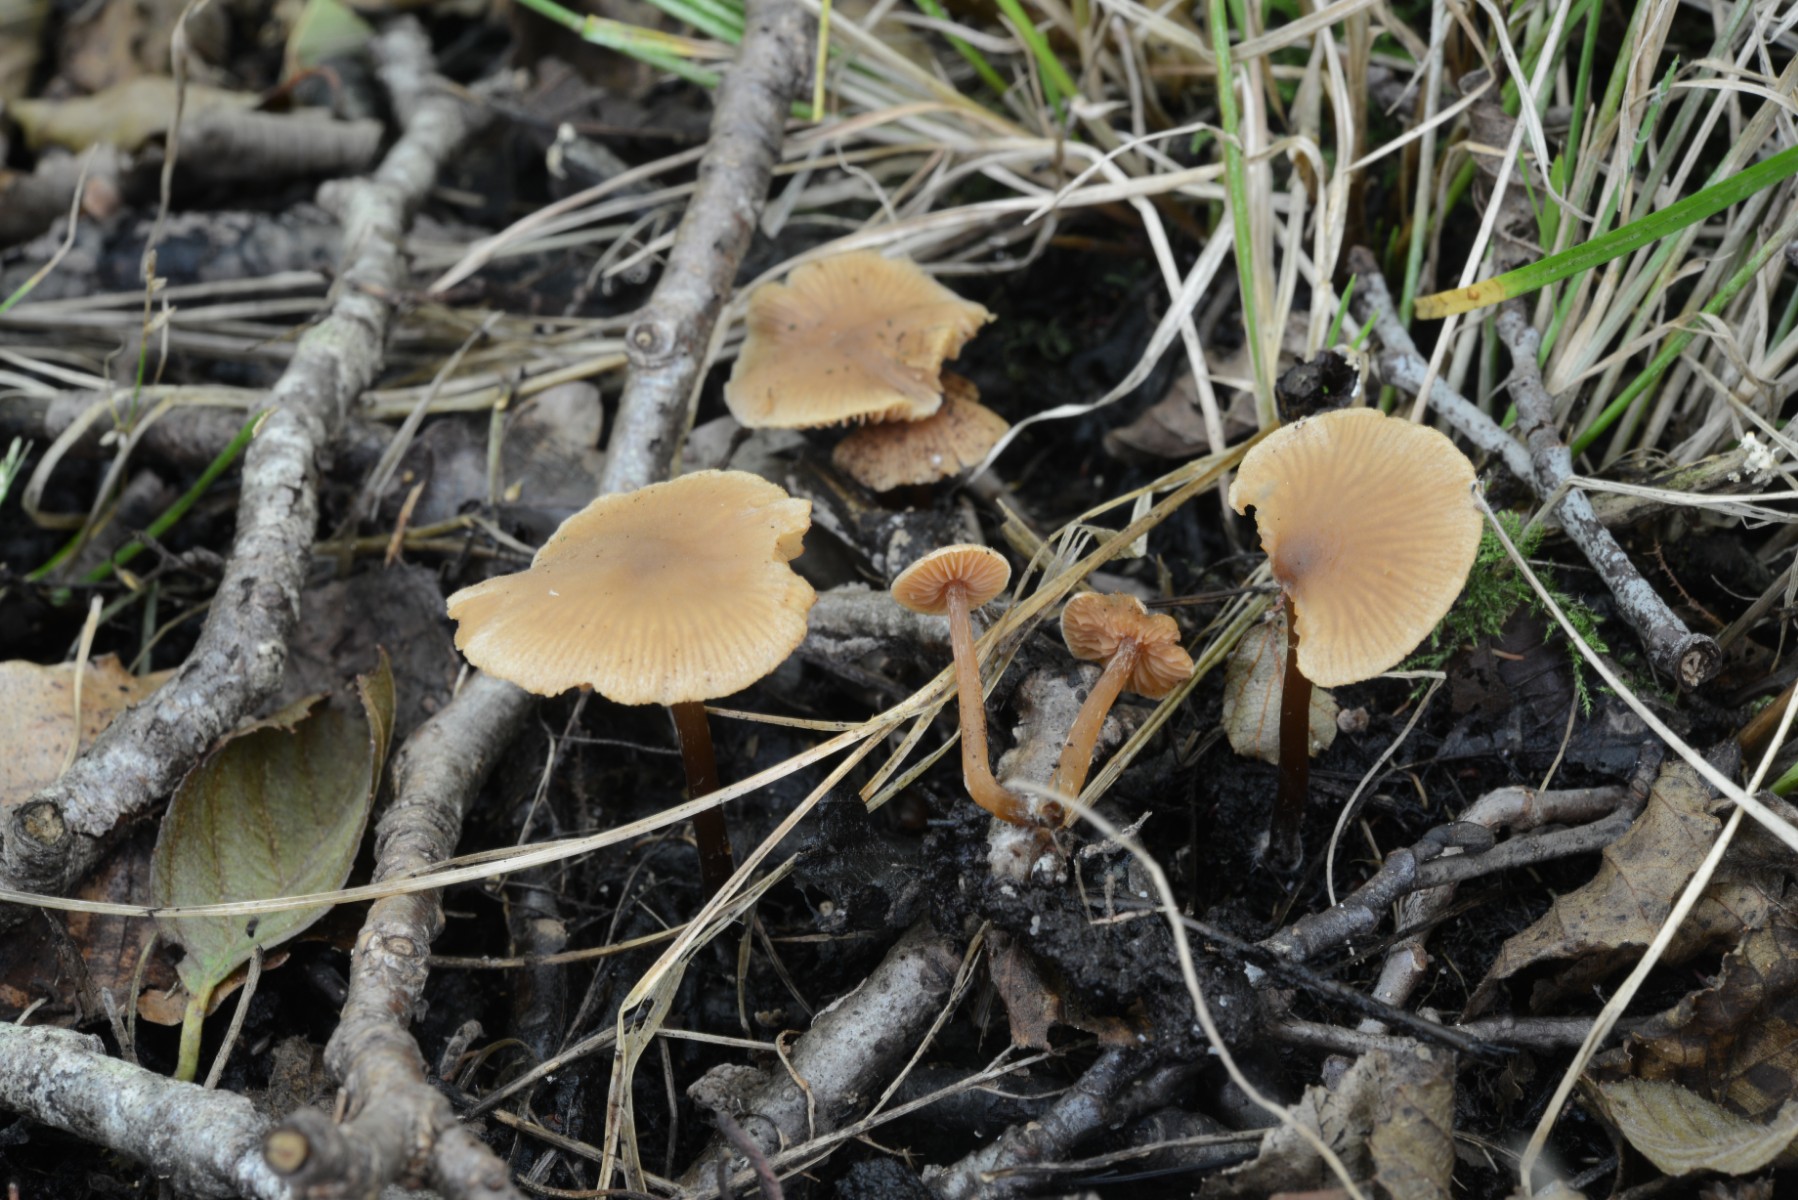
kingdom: Fungi
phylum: Basidiomycota
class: Agaricomycetes
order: Agaricales
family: Hymenogastraceae
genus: Naucoria
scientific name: Naucoria scolecina
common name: mørk elle-knaphat
